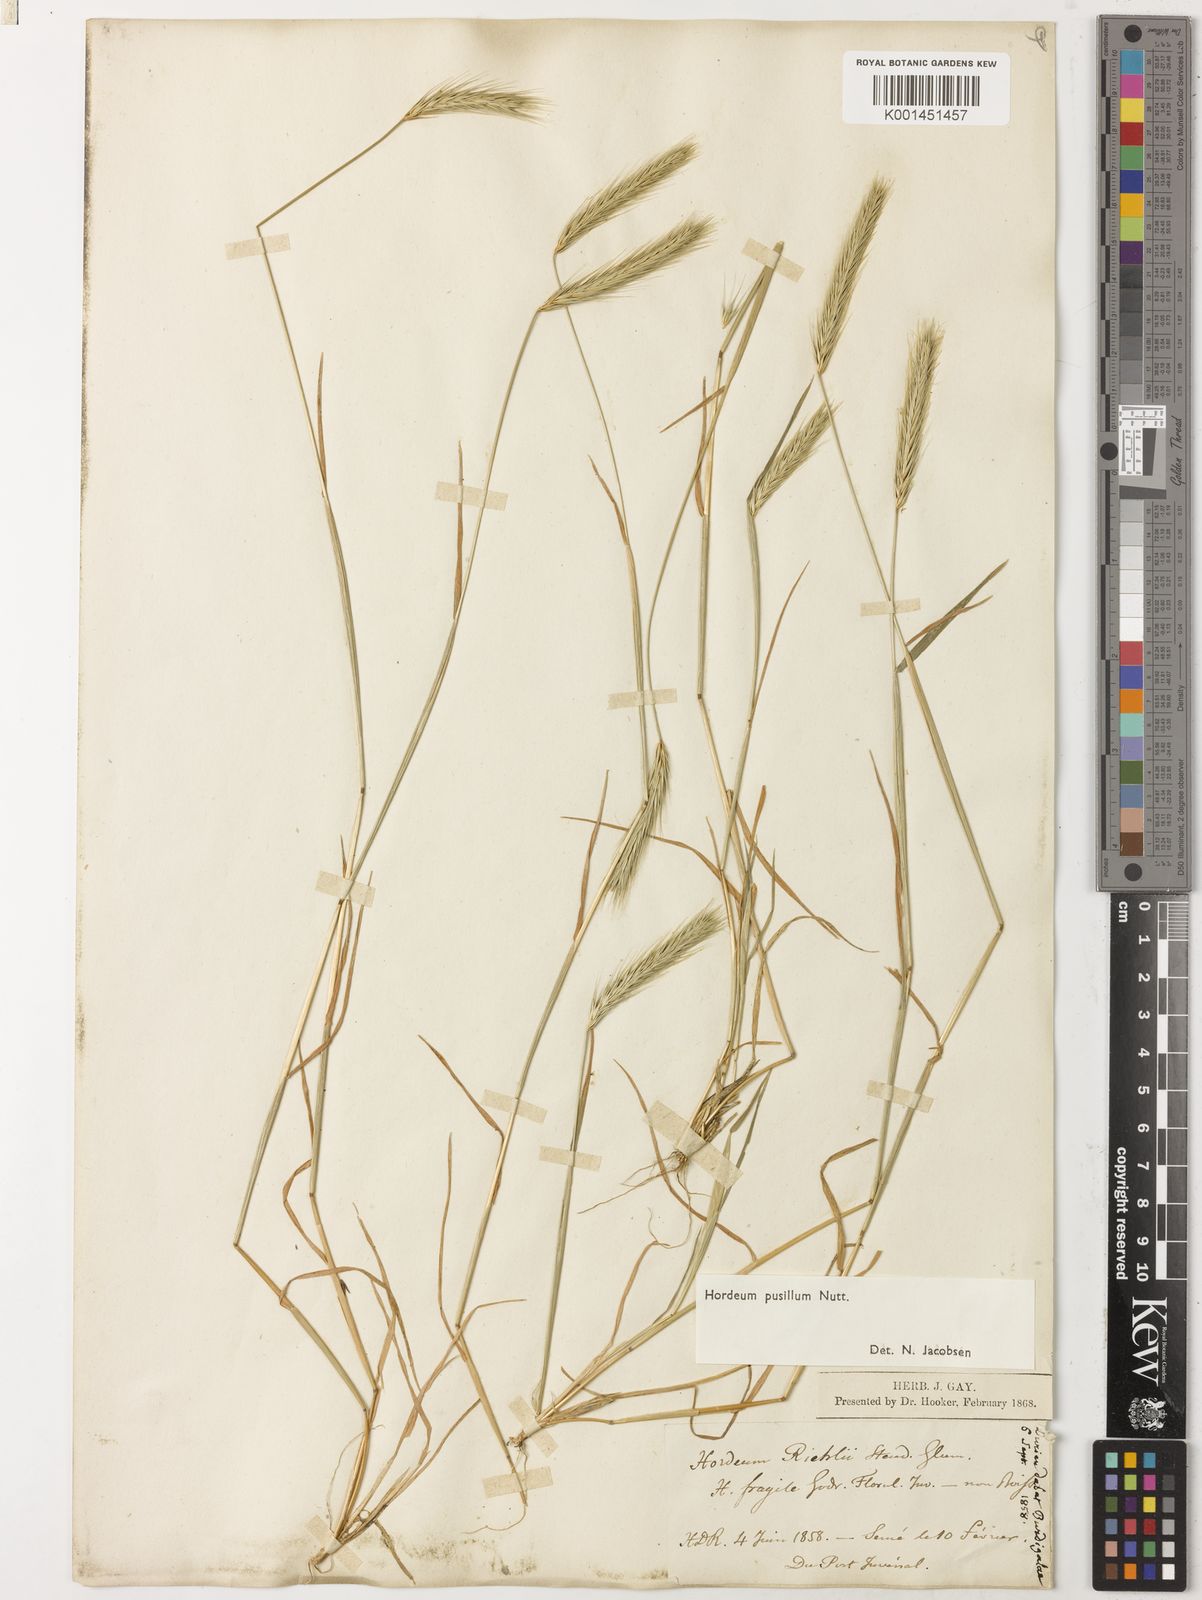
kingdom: Plantae
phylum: Tracheophyta
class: Liliopsida
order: Poales
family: Poaceae
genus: Hordeum
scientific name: Hordeum pusillum
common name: Little barley
